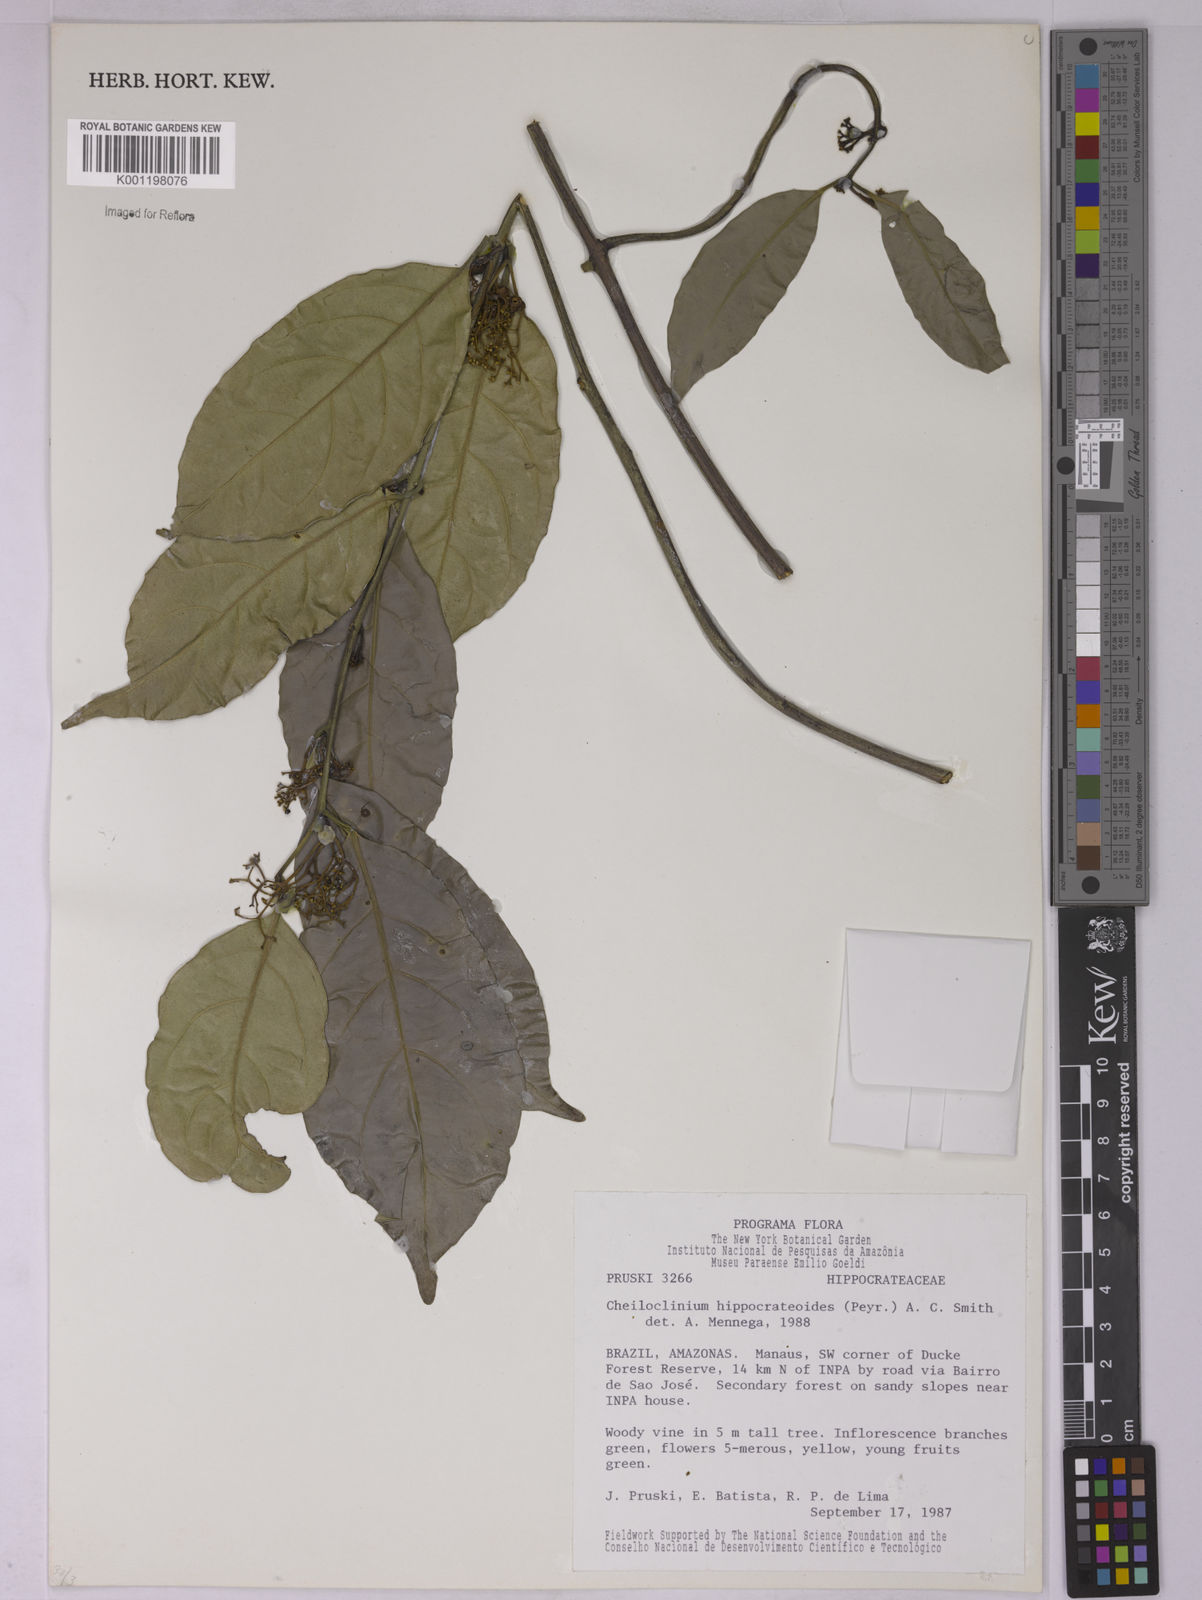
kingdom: Plantae
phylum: Tracheophyta
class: Magnoliopsida
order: Celastrales
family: Celastraceae
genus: Cheiloclinium
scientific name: Cheiloclinium hippocrateoides
